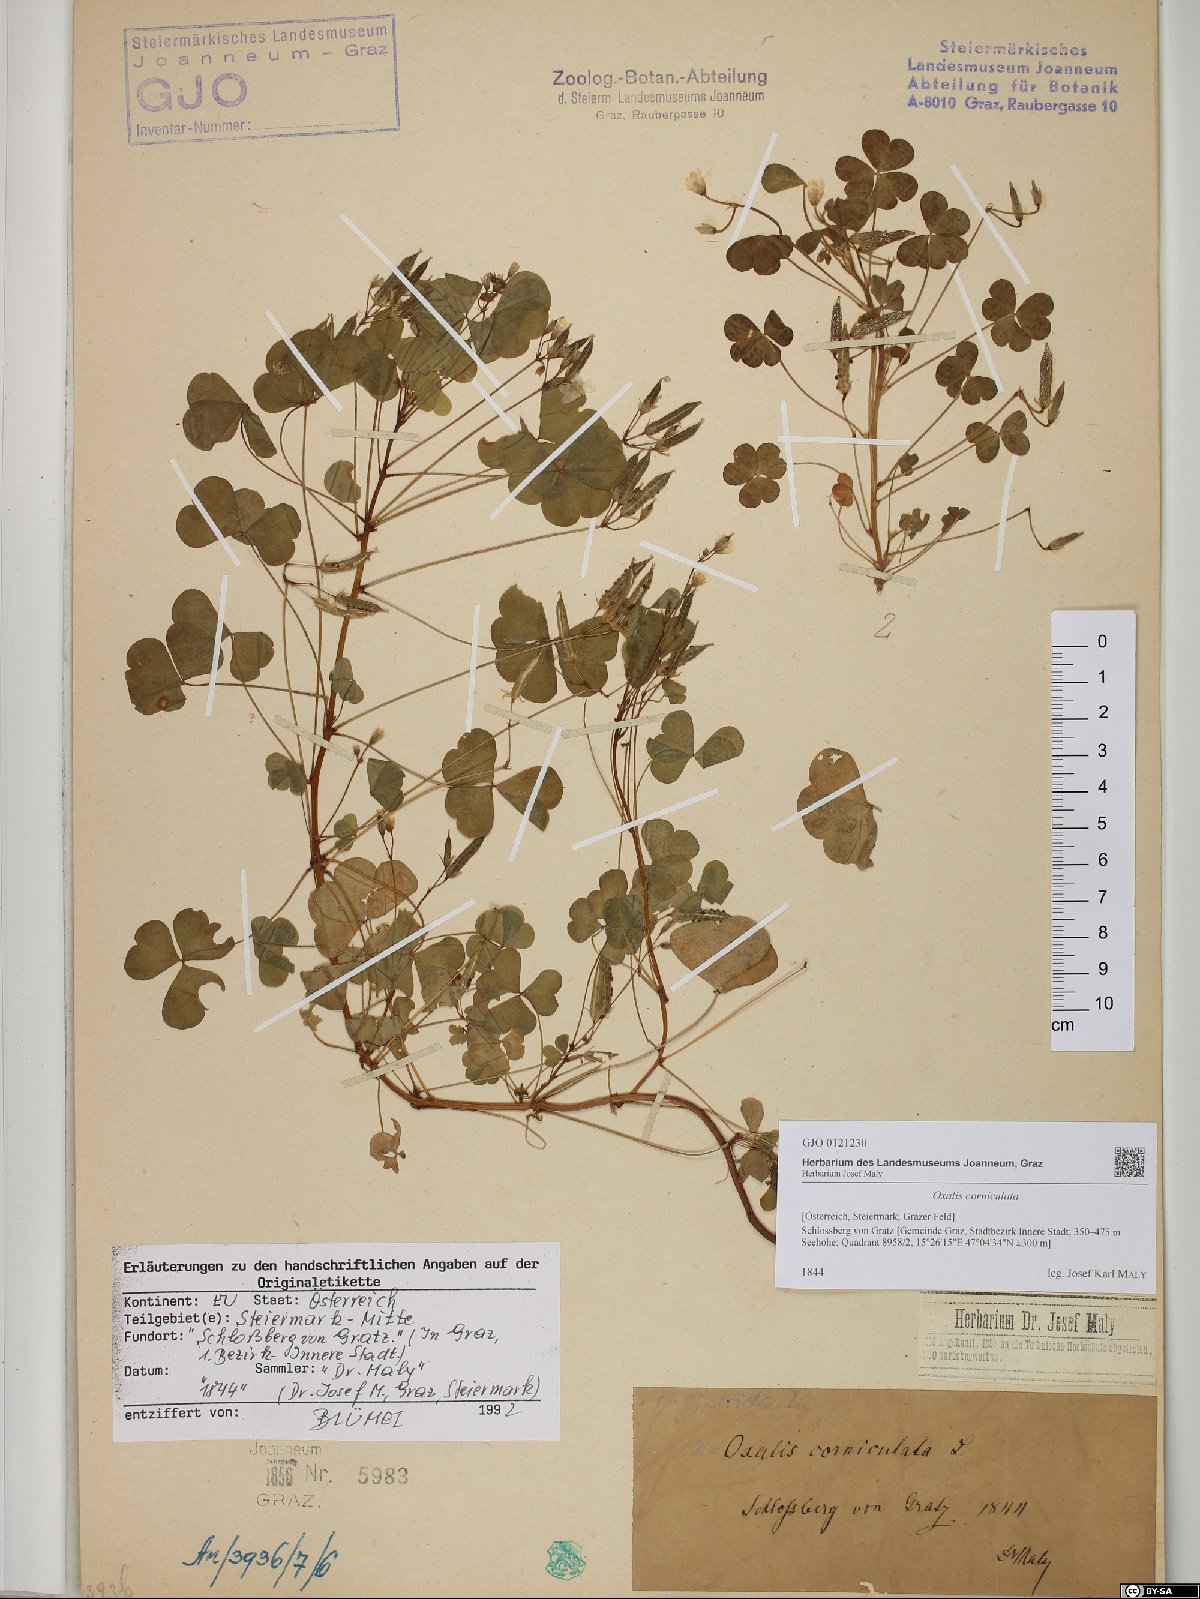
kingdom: Plantae
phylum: Tracheophyta
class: Magnoliopsida
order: Oxalidales
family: Oxalidaceae
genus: Oxalis
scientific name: Oxalis corniculata
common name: Procumbent yellow-sorrel
